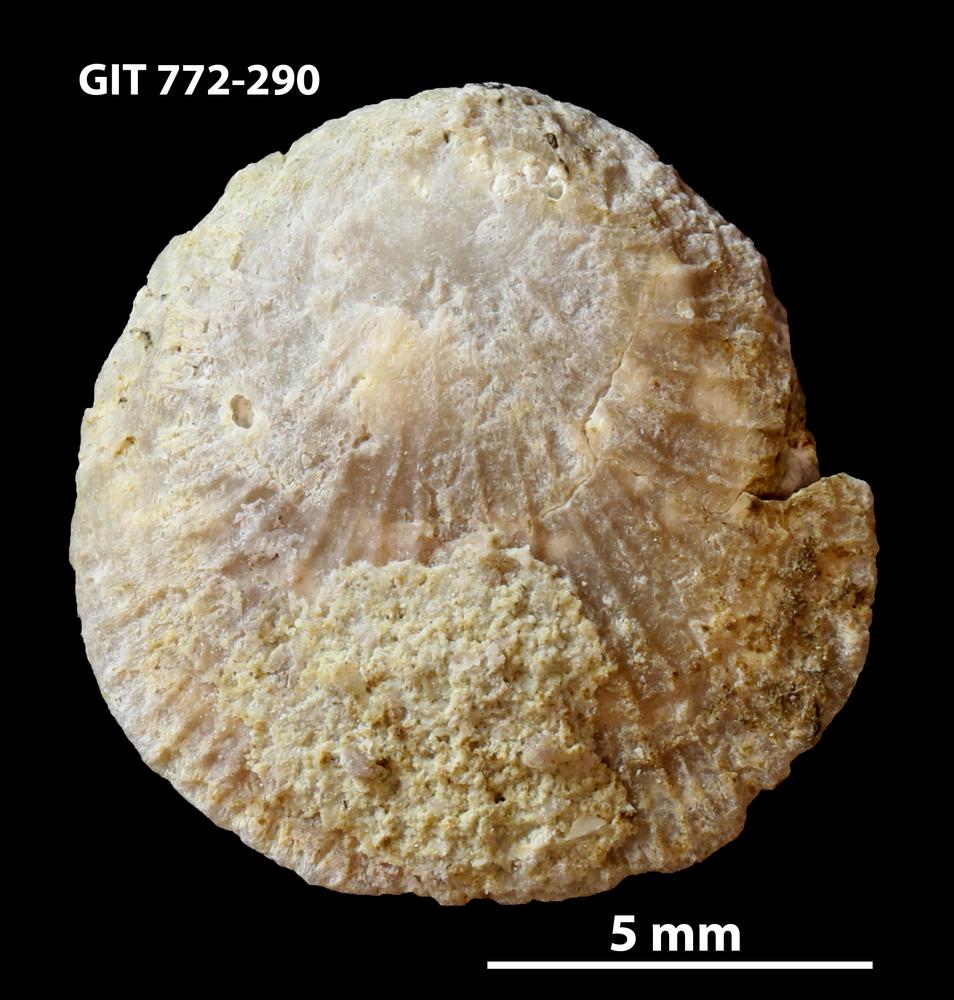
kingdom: Animalia
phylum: Brachiopoda
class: Craniata
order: Craniida
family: Craniidae
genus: Orthisocrania
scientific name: Orthisocrania
